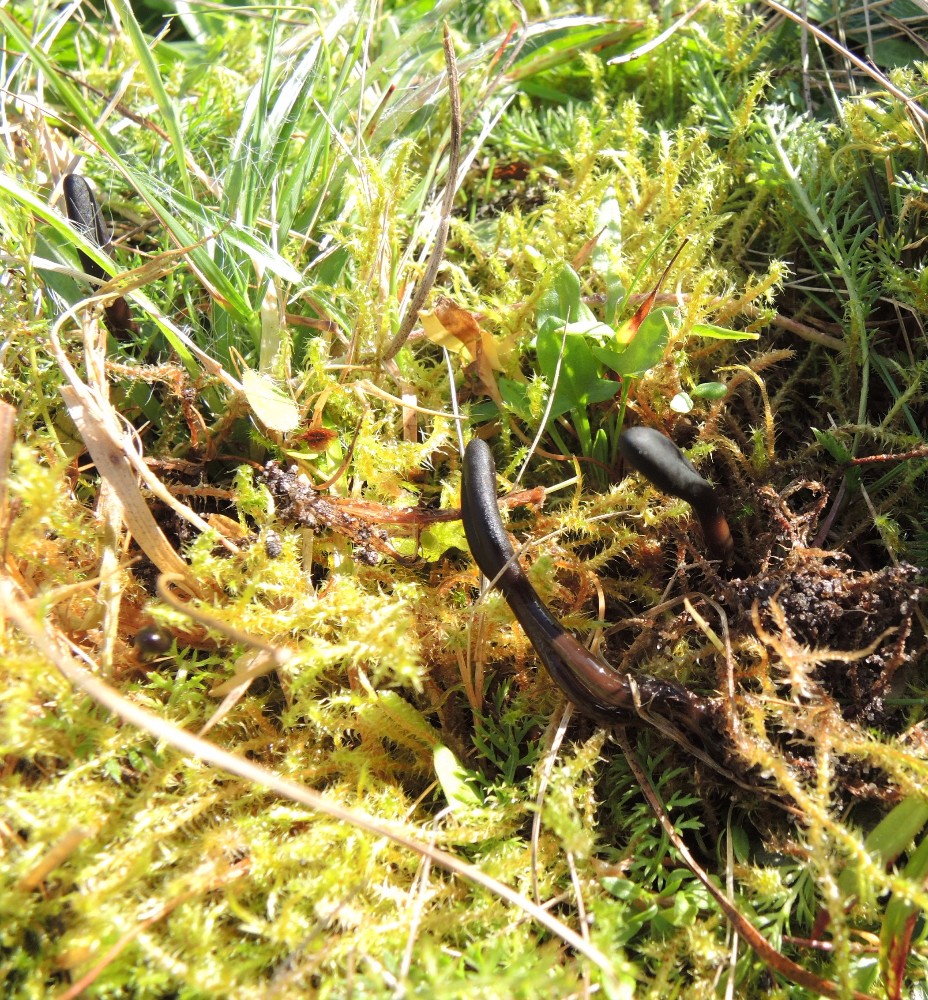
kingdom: Fungi
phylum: Ascomycota
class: Geoglossomycetes
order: Geoglossales
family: Geoglossaceae
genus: Glutinoglossum
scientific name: Glutinoglossum glutinosum
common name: slimet jordtunge
